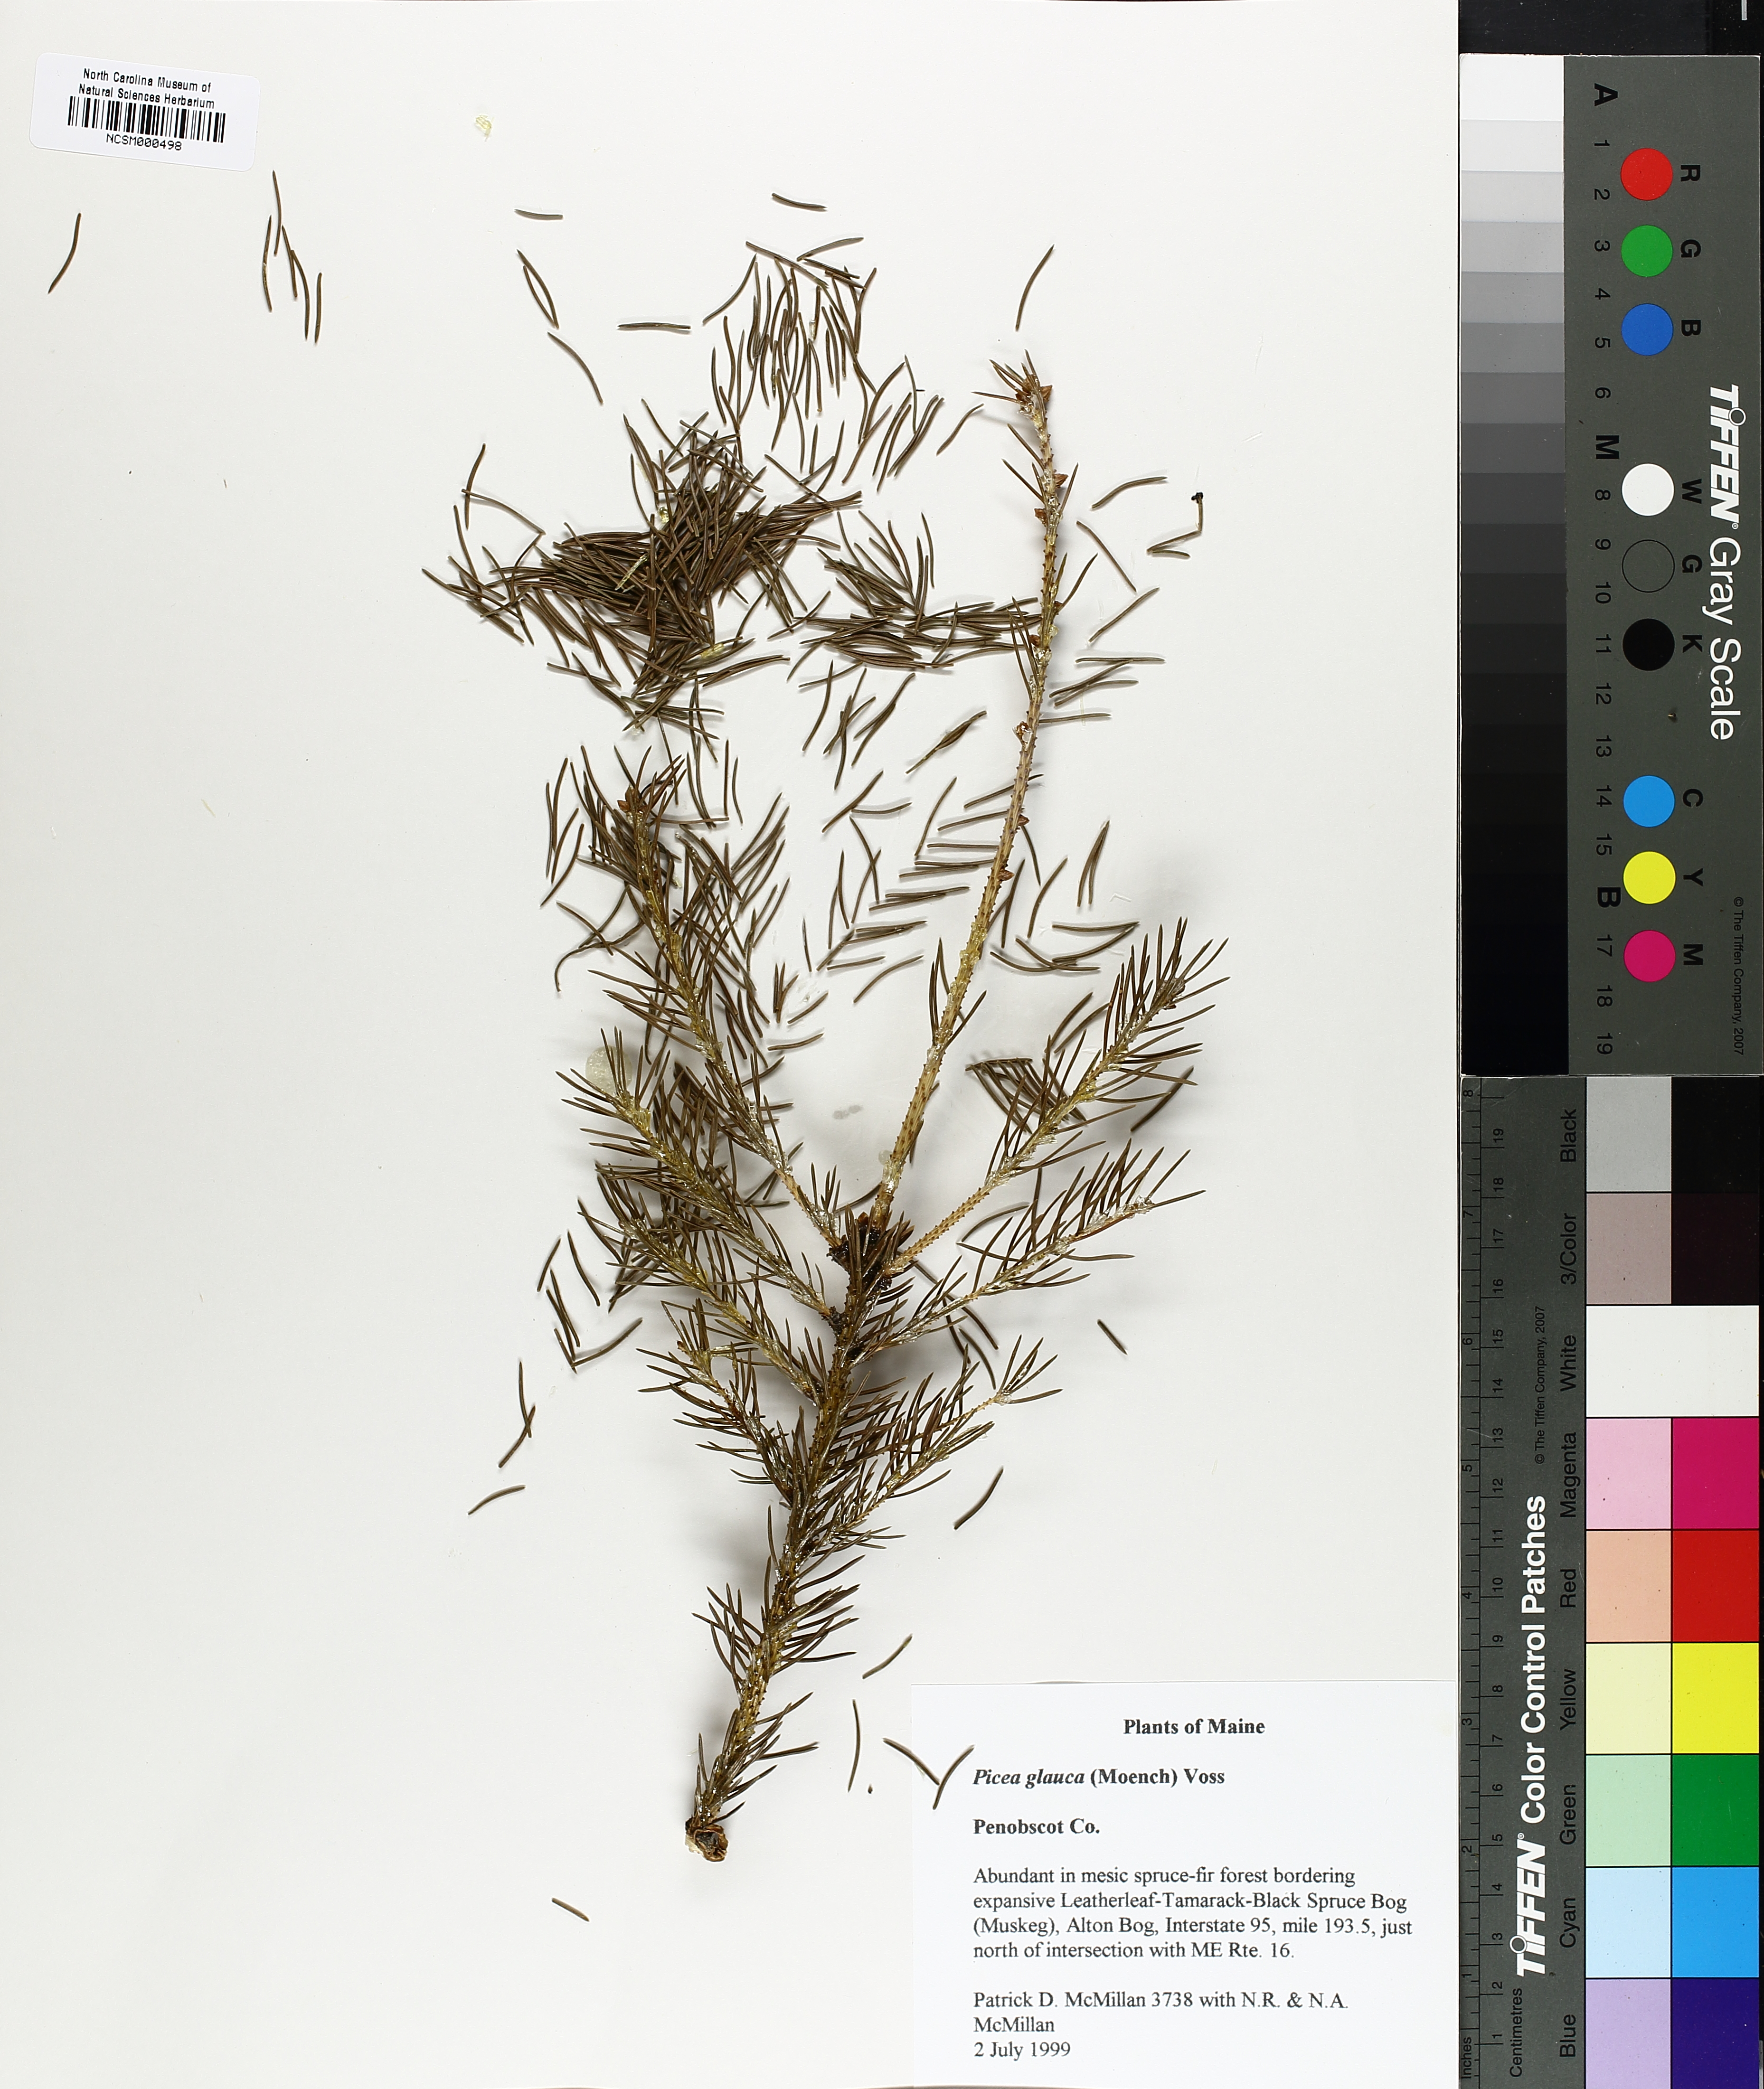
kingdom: Plantae
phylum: Tracheophyta
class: Pinopsida
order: Pinales
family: Pinaceae
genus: Picea
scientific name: Picea glauca
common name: White spruce
